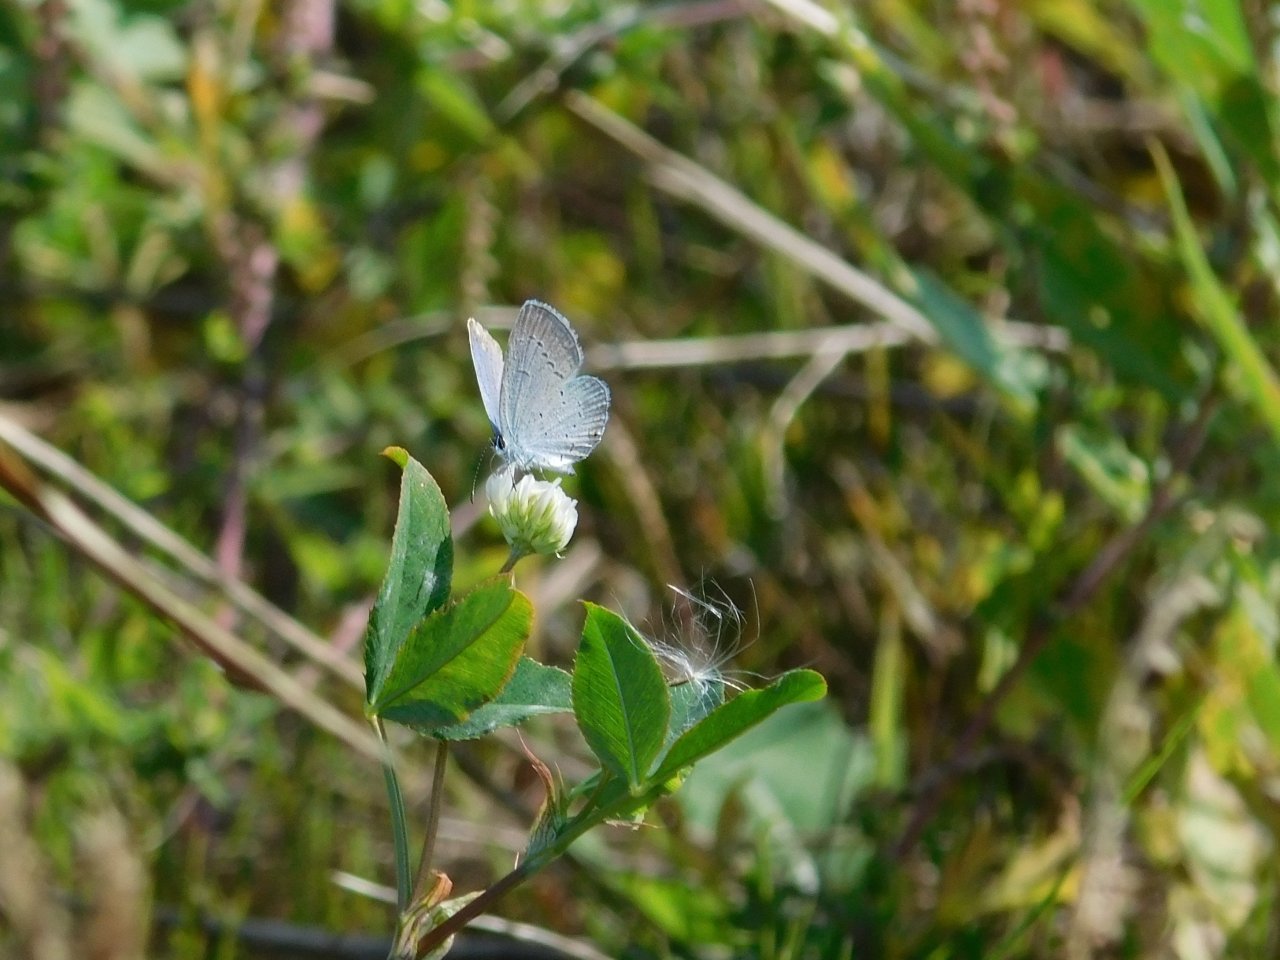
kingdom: Animalia
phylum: Arthropoda
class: Insecta
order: Lepidoptera
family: Lycaenidae
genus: Celastrina
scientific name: Celastrina lucia
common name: Northern Spring Azure
